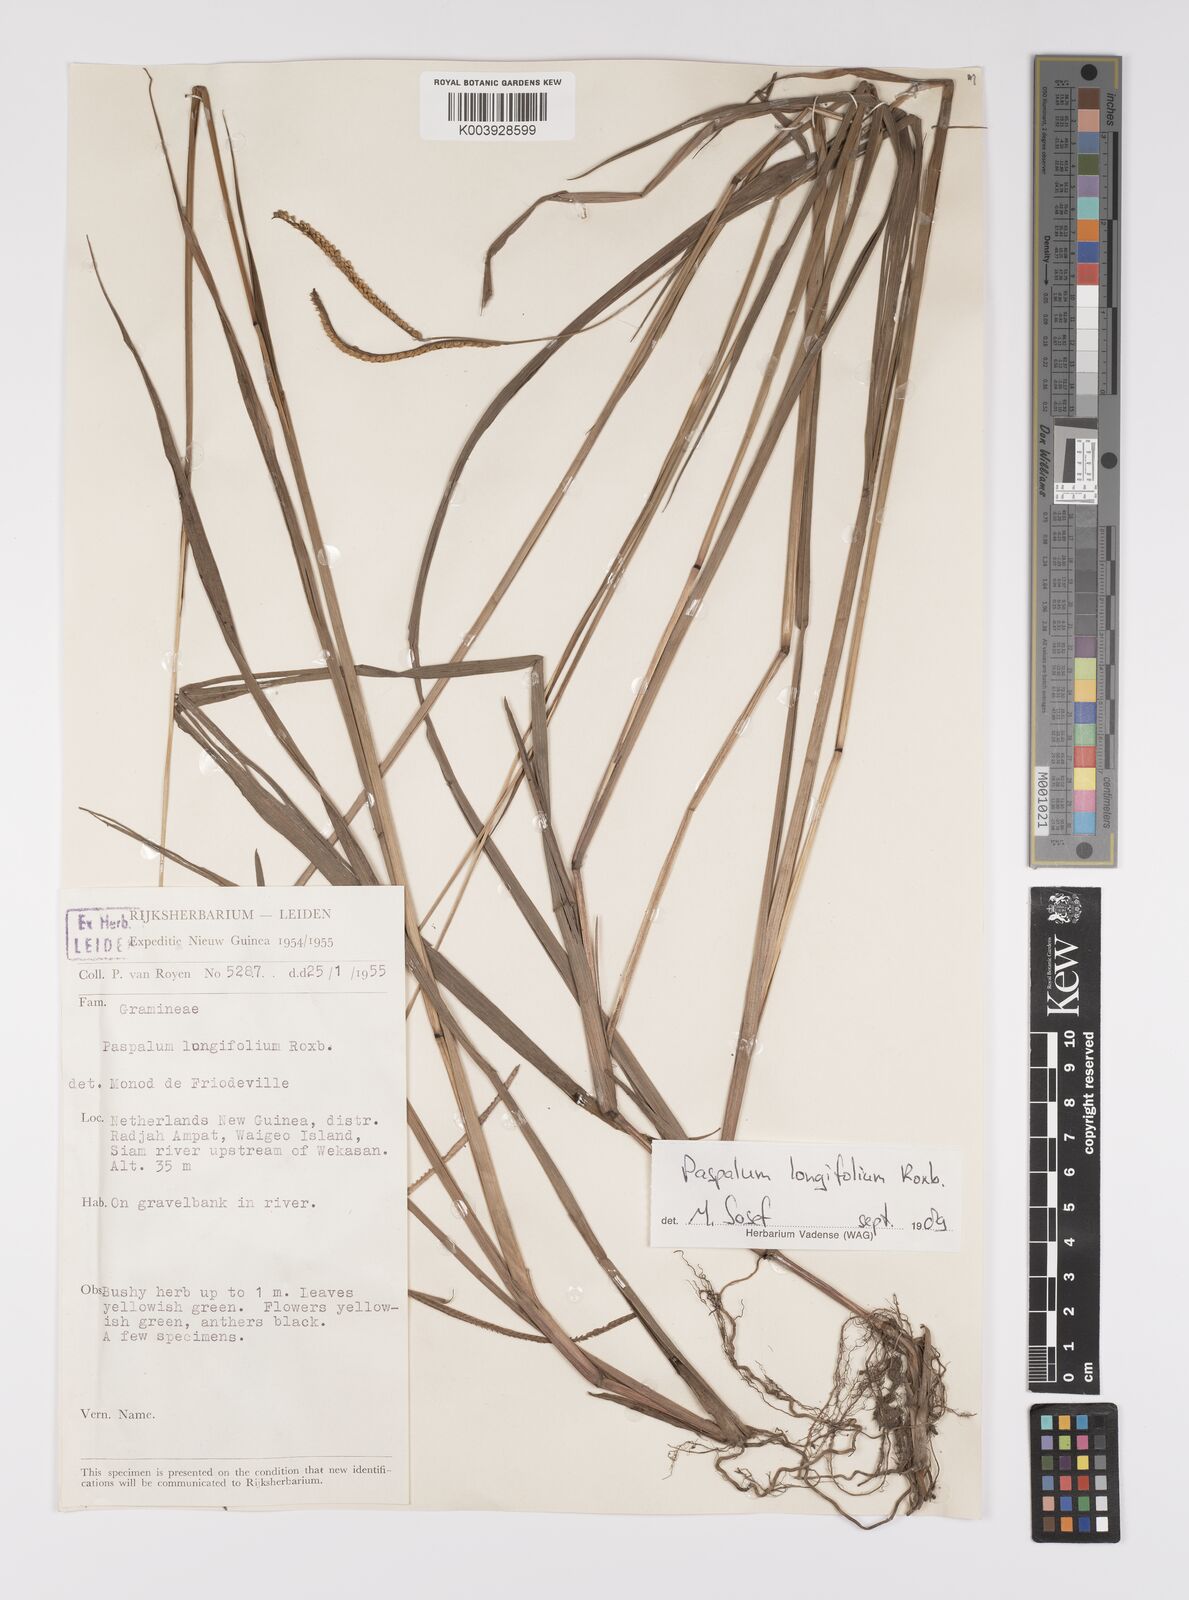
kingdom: Plantae
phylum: Tracheophyta
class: Liliopsida
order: Poales
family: Poaceae
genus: Paspalum
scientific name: Paspalum sumatrense
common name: Long-leaved paspalum
